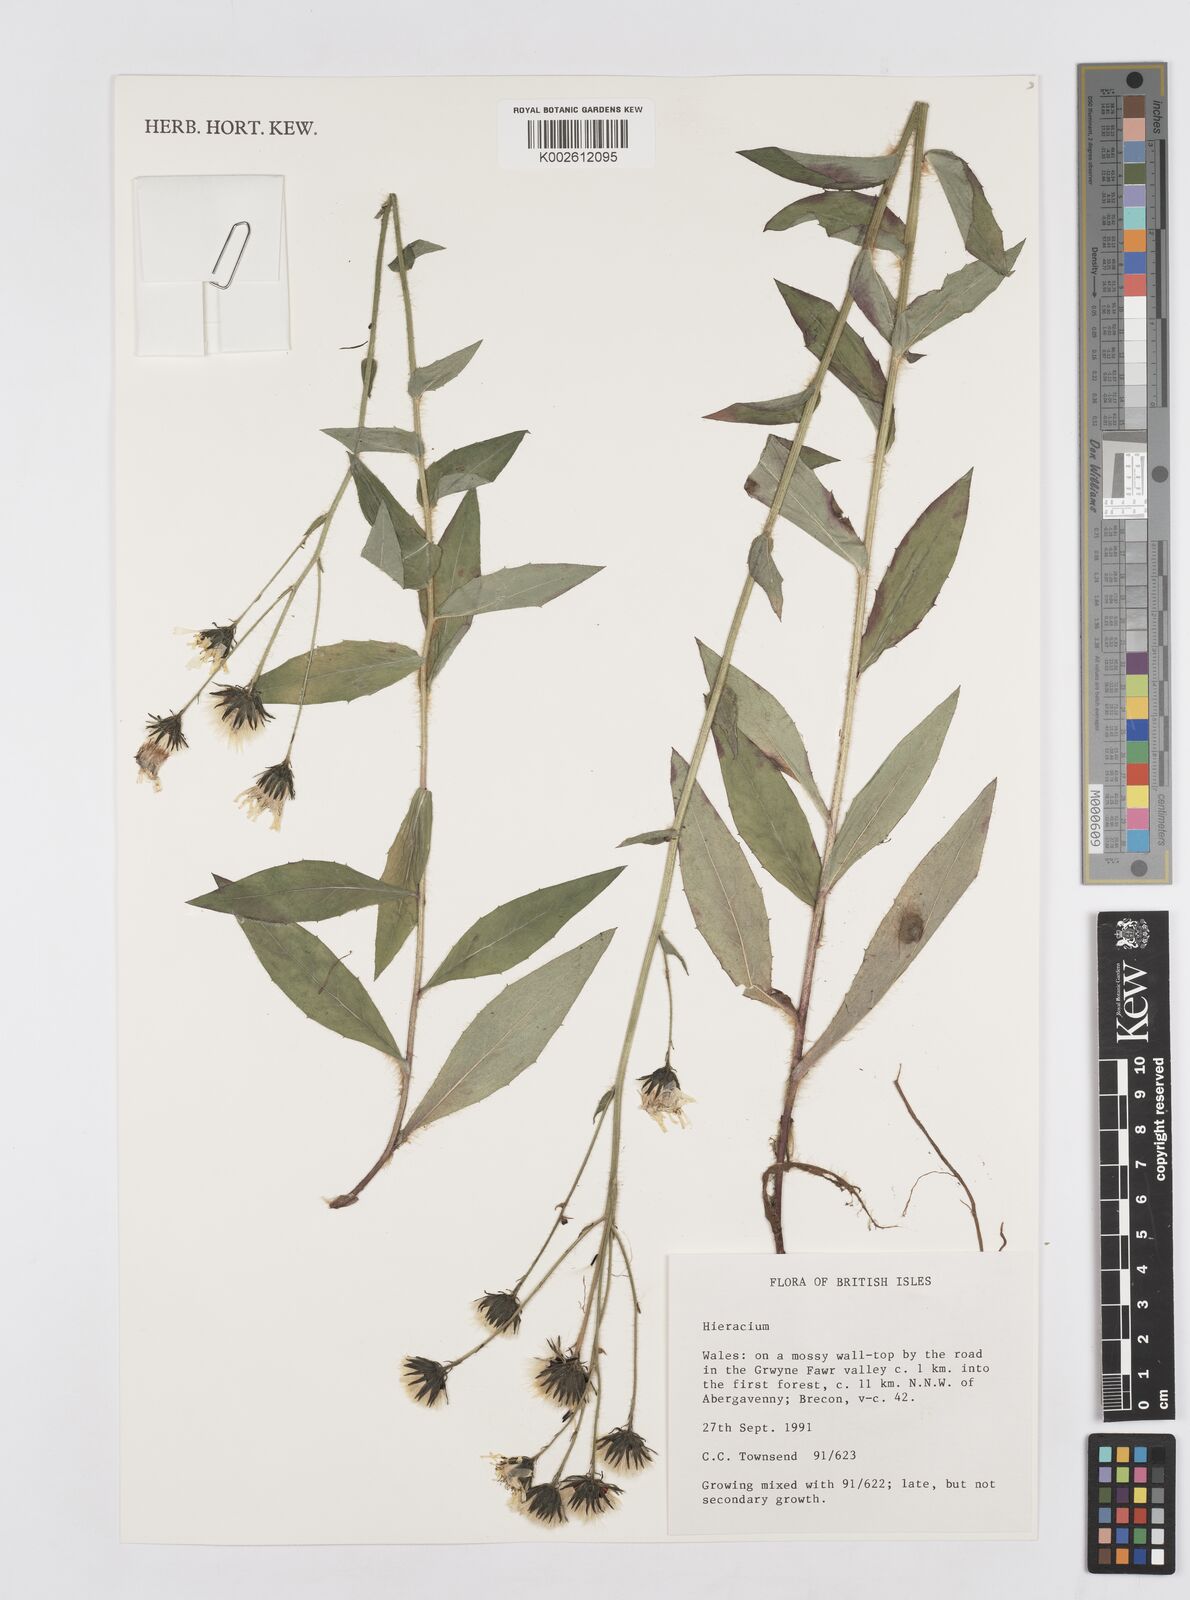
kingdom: Plantae
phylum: Tracheophyta
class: Magnoliopsida
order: Asterales
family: Asteraceae
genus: Hieracium
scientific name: Hieracium
